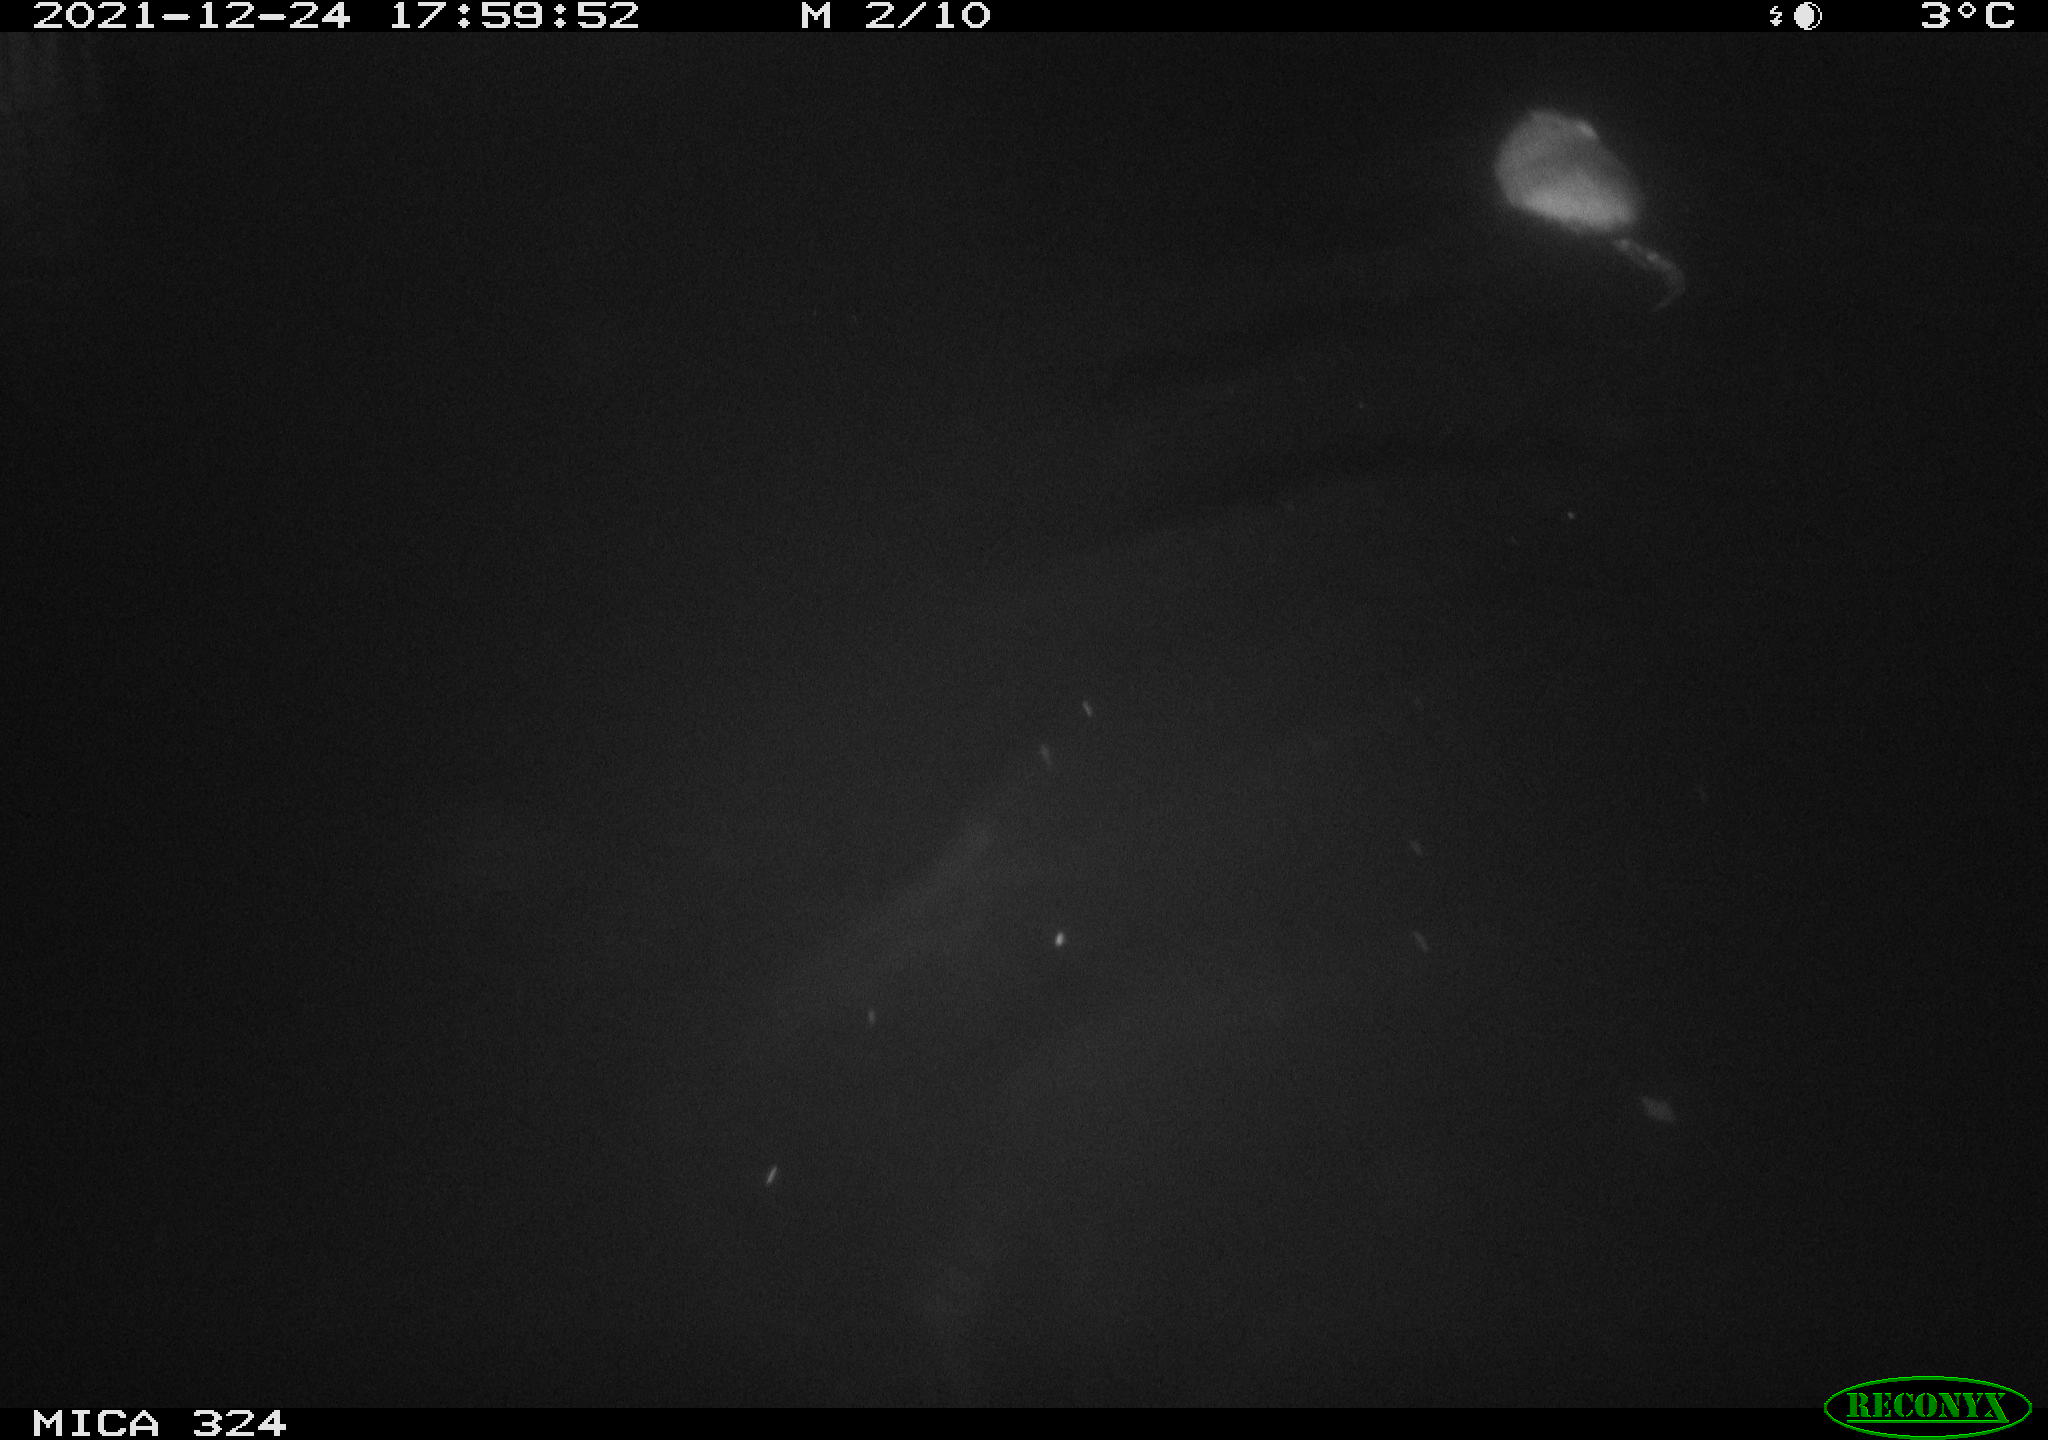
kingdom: Animalia
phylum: Chordata
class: Mammalia
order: Rodentia
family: Cricetidae
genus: Ondatra
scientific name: Ondatra zibethicus
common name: Muskrat
